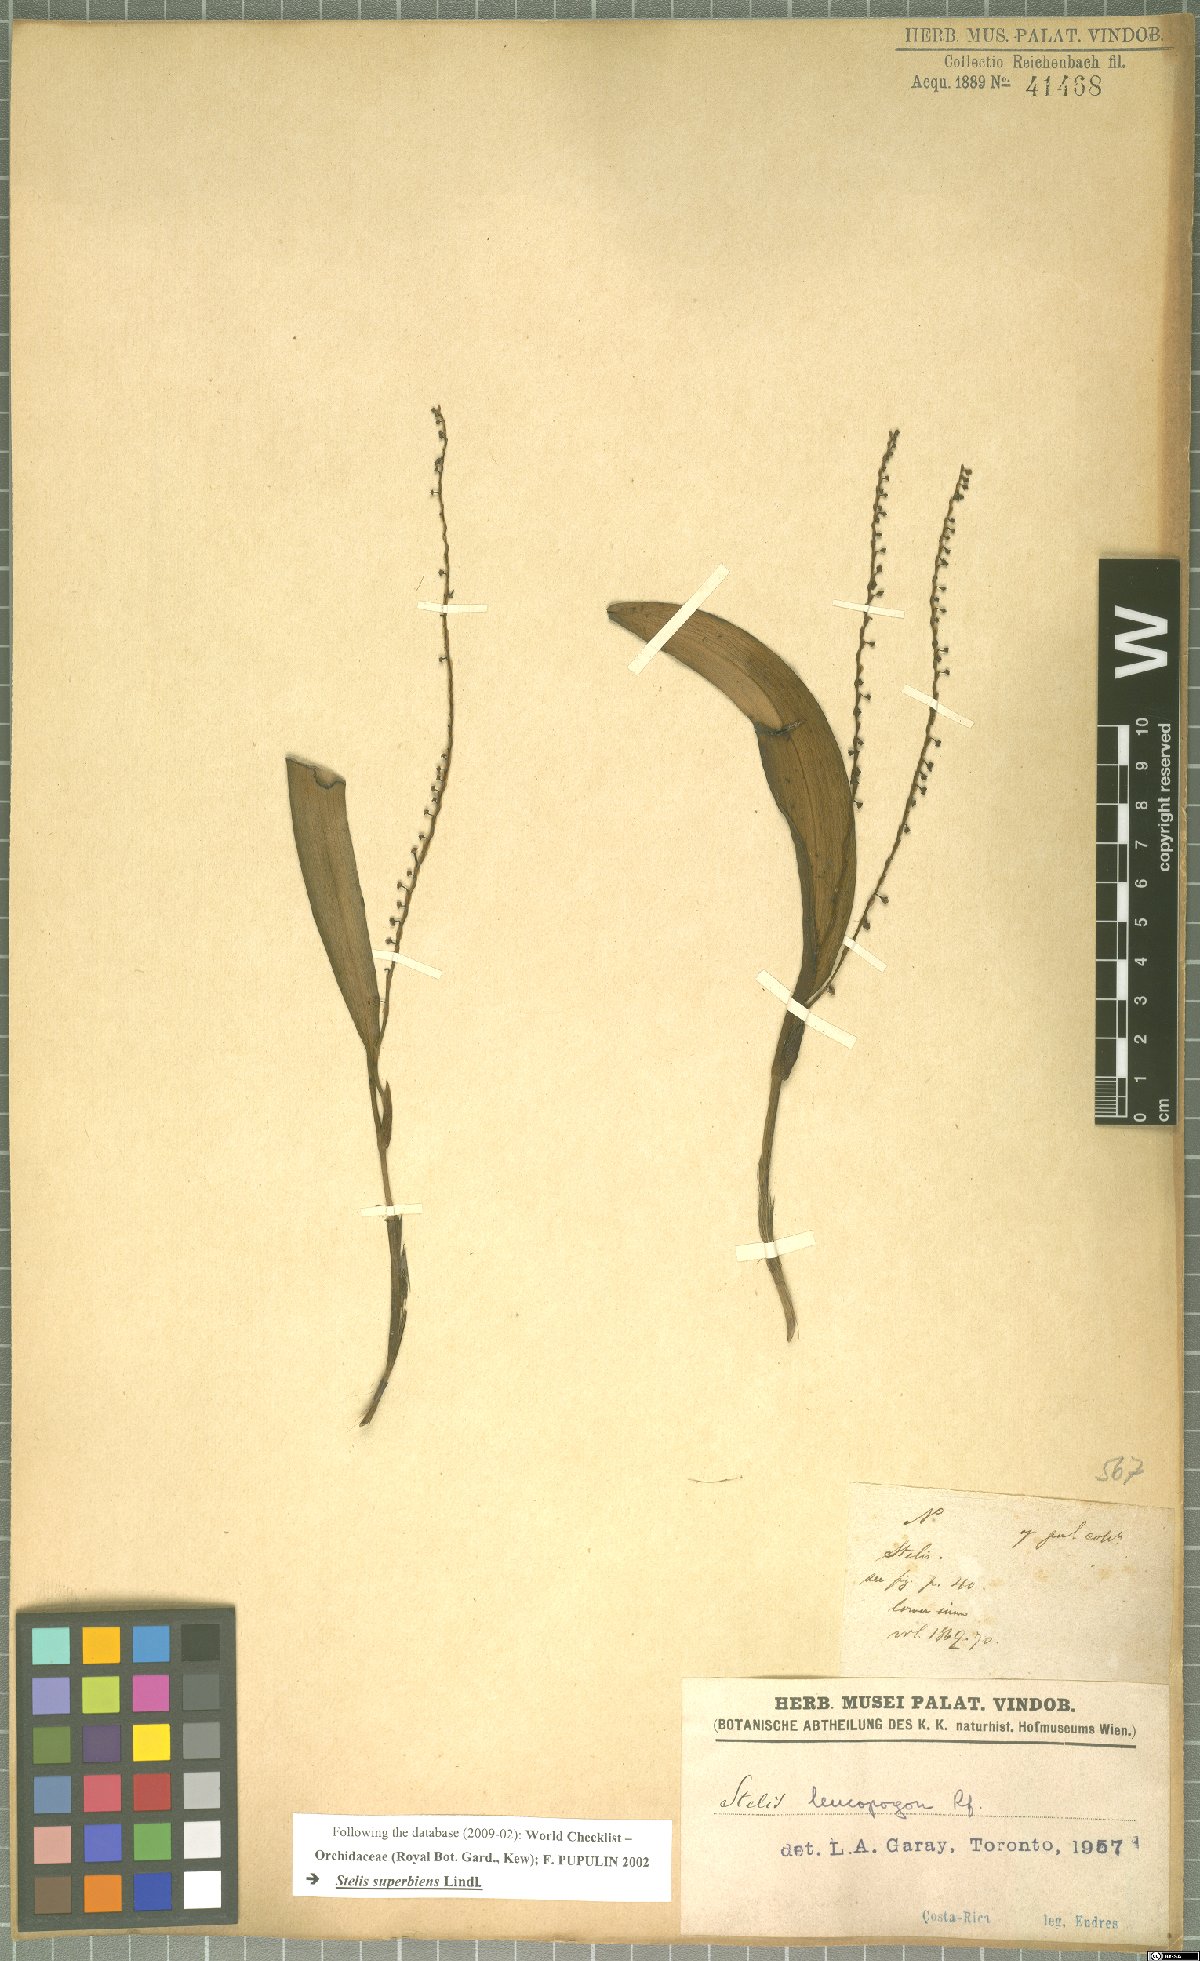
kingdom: Plantae
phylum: Tracheophyta
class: Liliopsida
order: Asparagales
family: Orchidaceae
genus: Stelis
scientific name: Stelis superbiens
